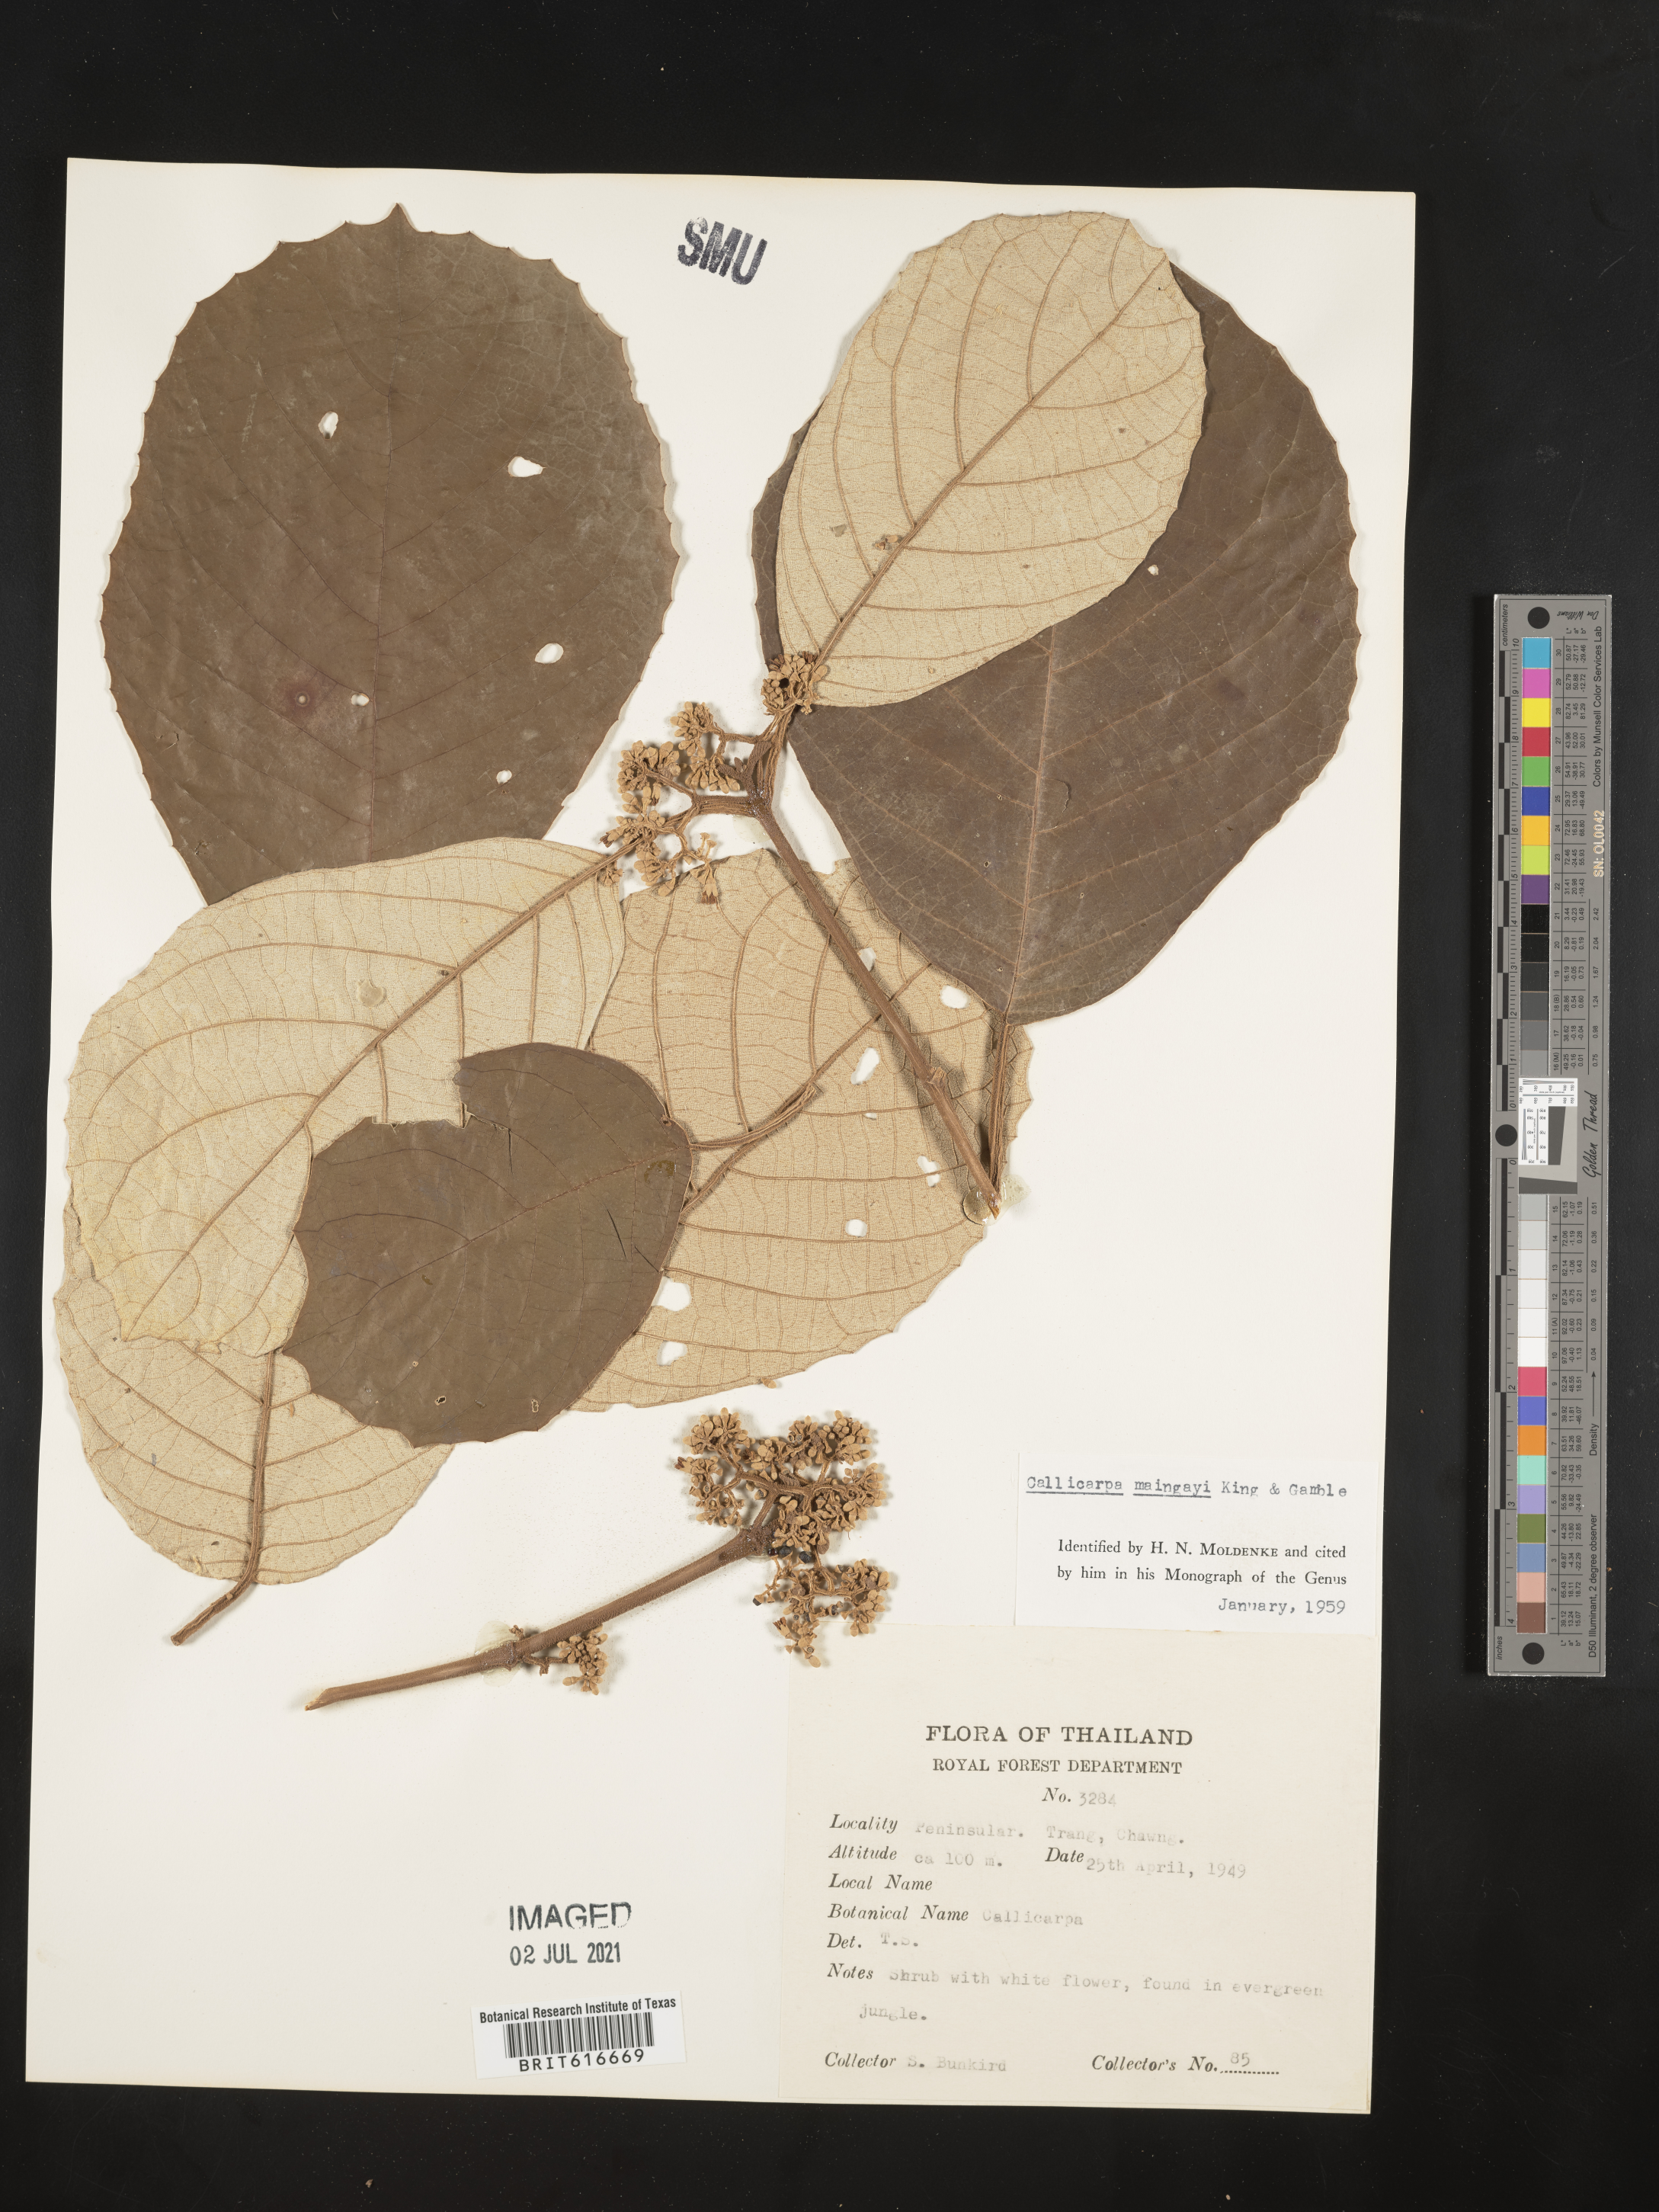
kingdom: Plantae
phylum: Tracheophyta
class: Magnoliopsida
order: Lamiales
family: Lamiaceae
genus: Callicarpa
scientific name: Callicarpa maingayi
